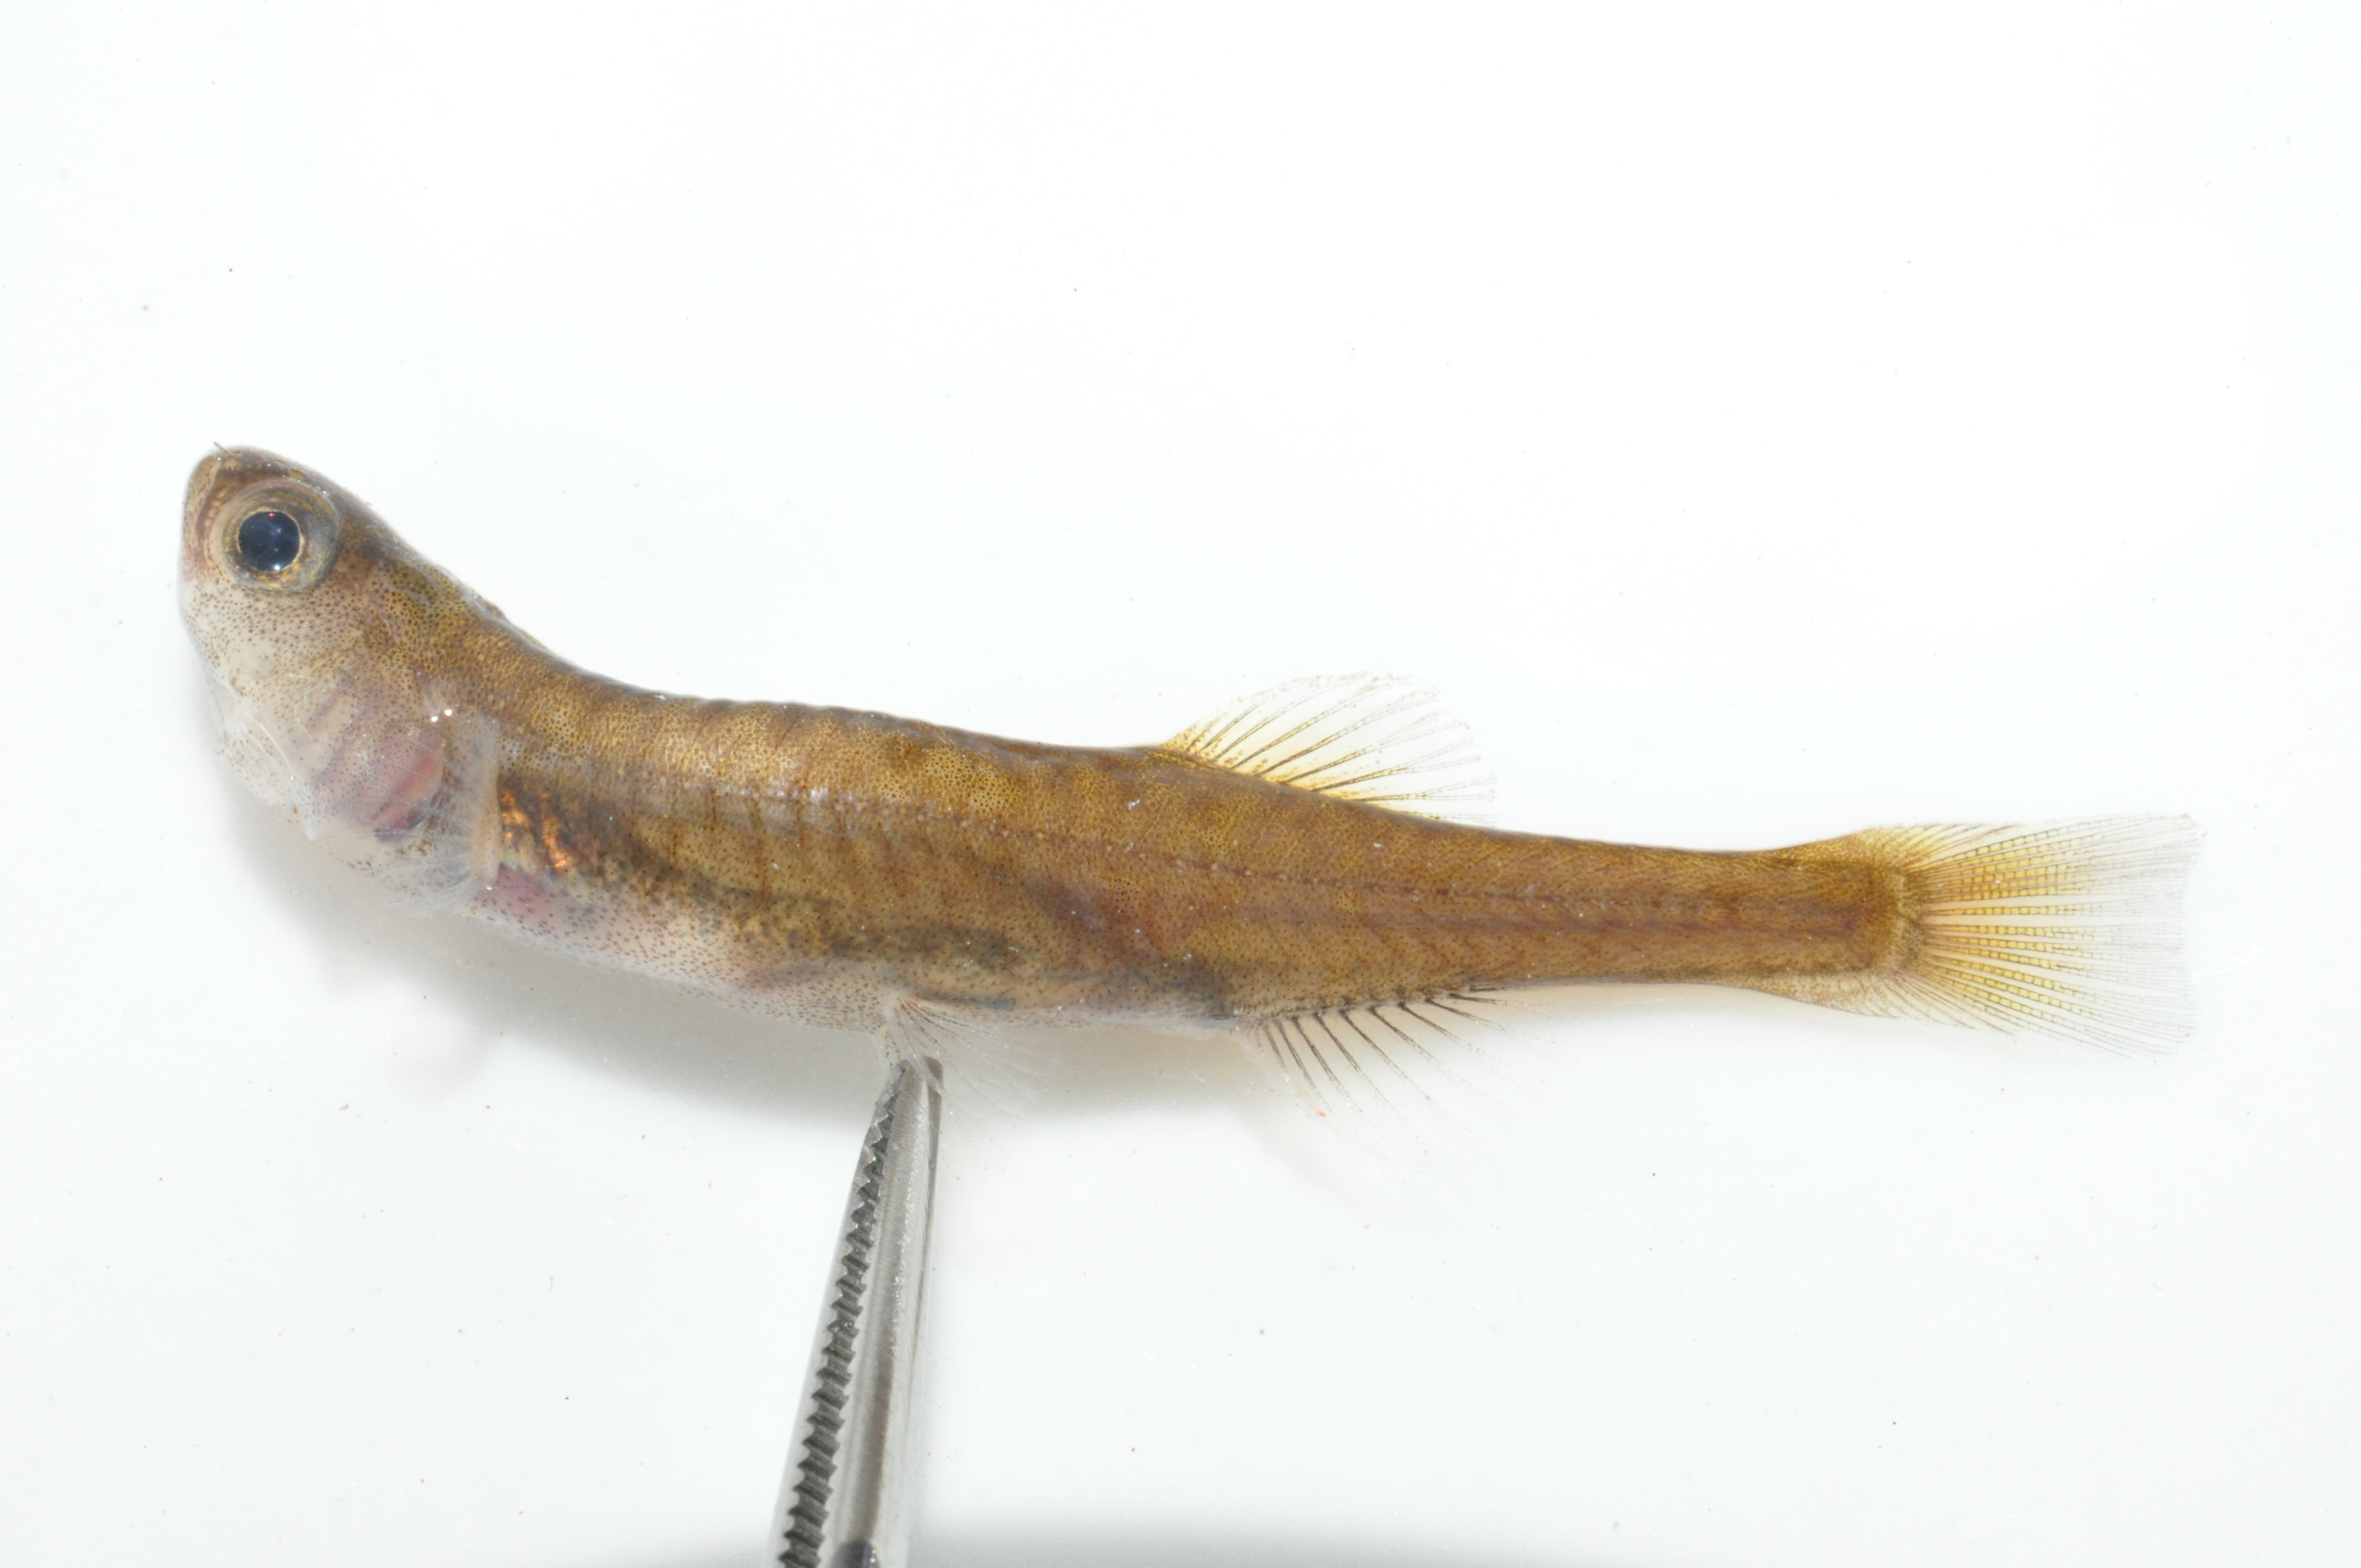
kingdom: Animalia
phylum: Chordata
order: Osmeriformes
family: Galaxiidae
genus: Galaxias
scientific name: Galaxias
